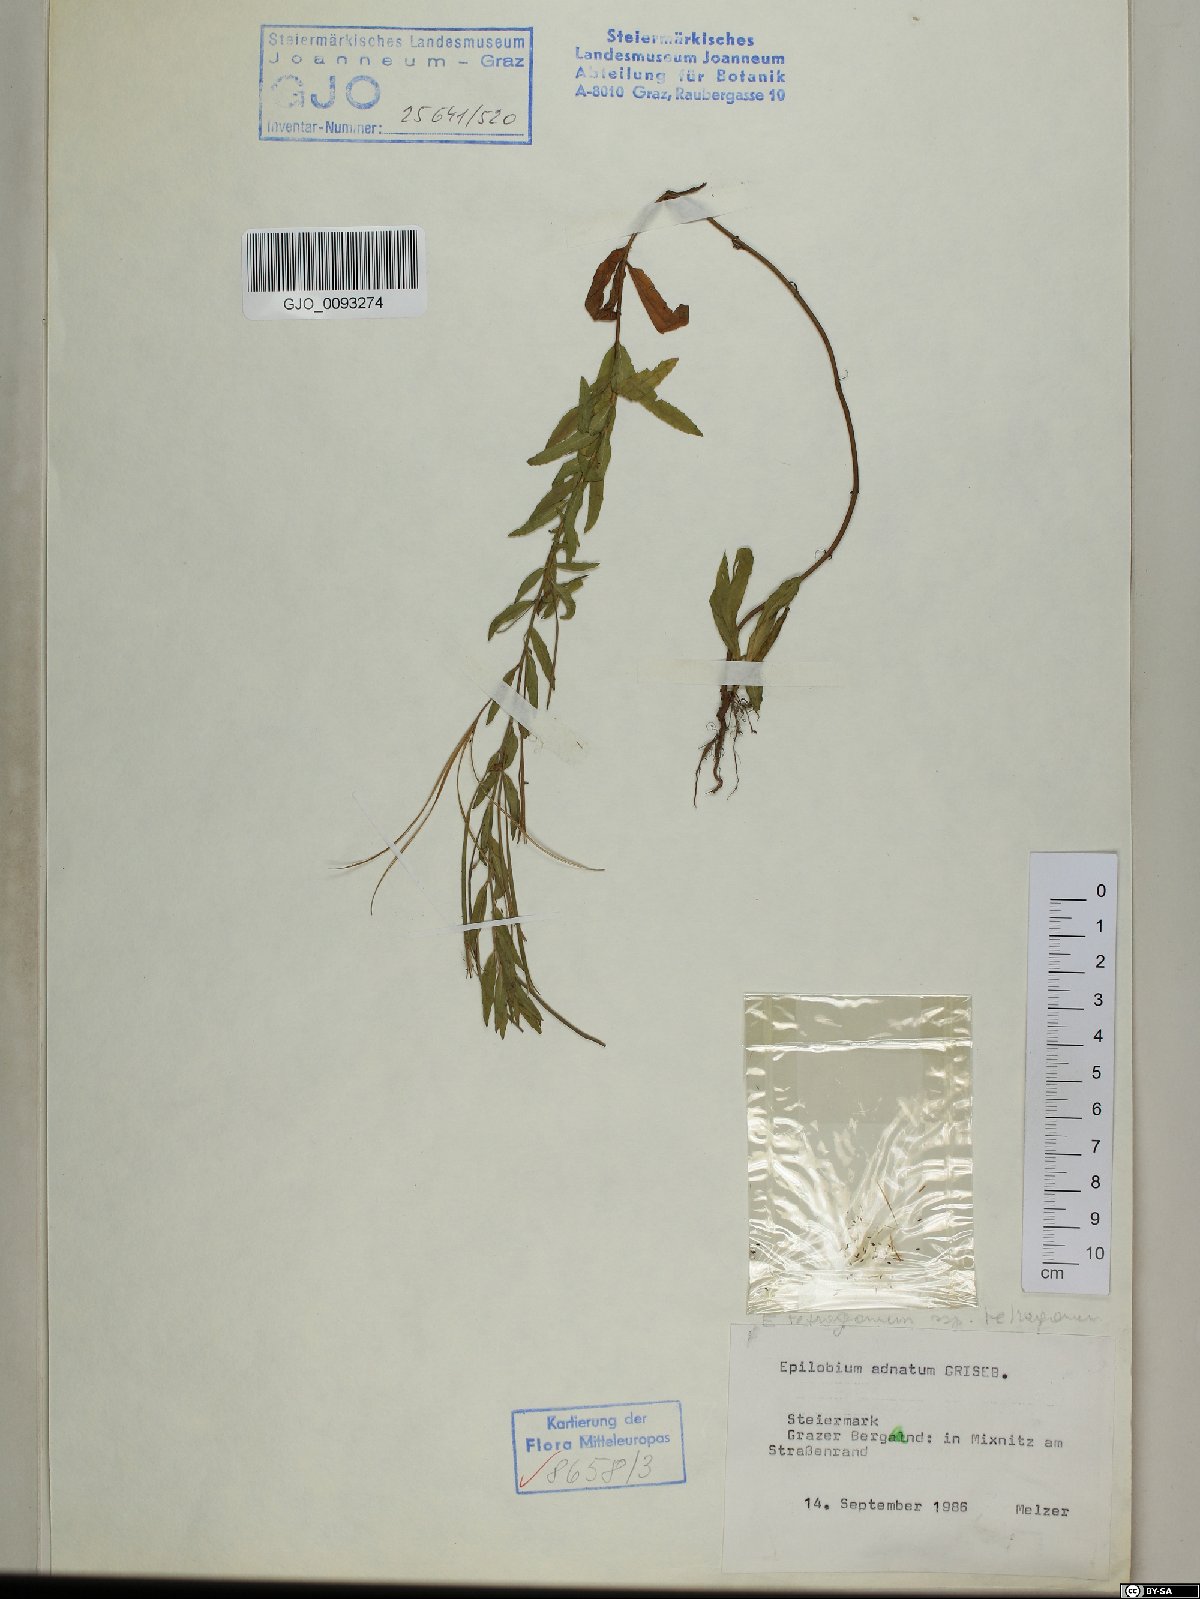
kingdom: Plantae
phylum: Tracheophyta
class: Magnoliopsida
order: Myrtales
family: Onagraceae
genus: Epilobium
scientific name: Epilobium tetragonum
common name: Square-stemmed willowherb
